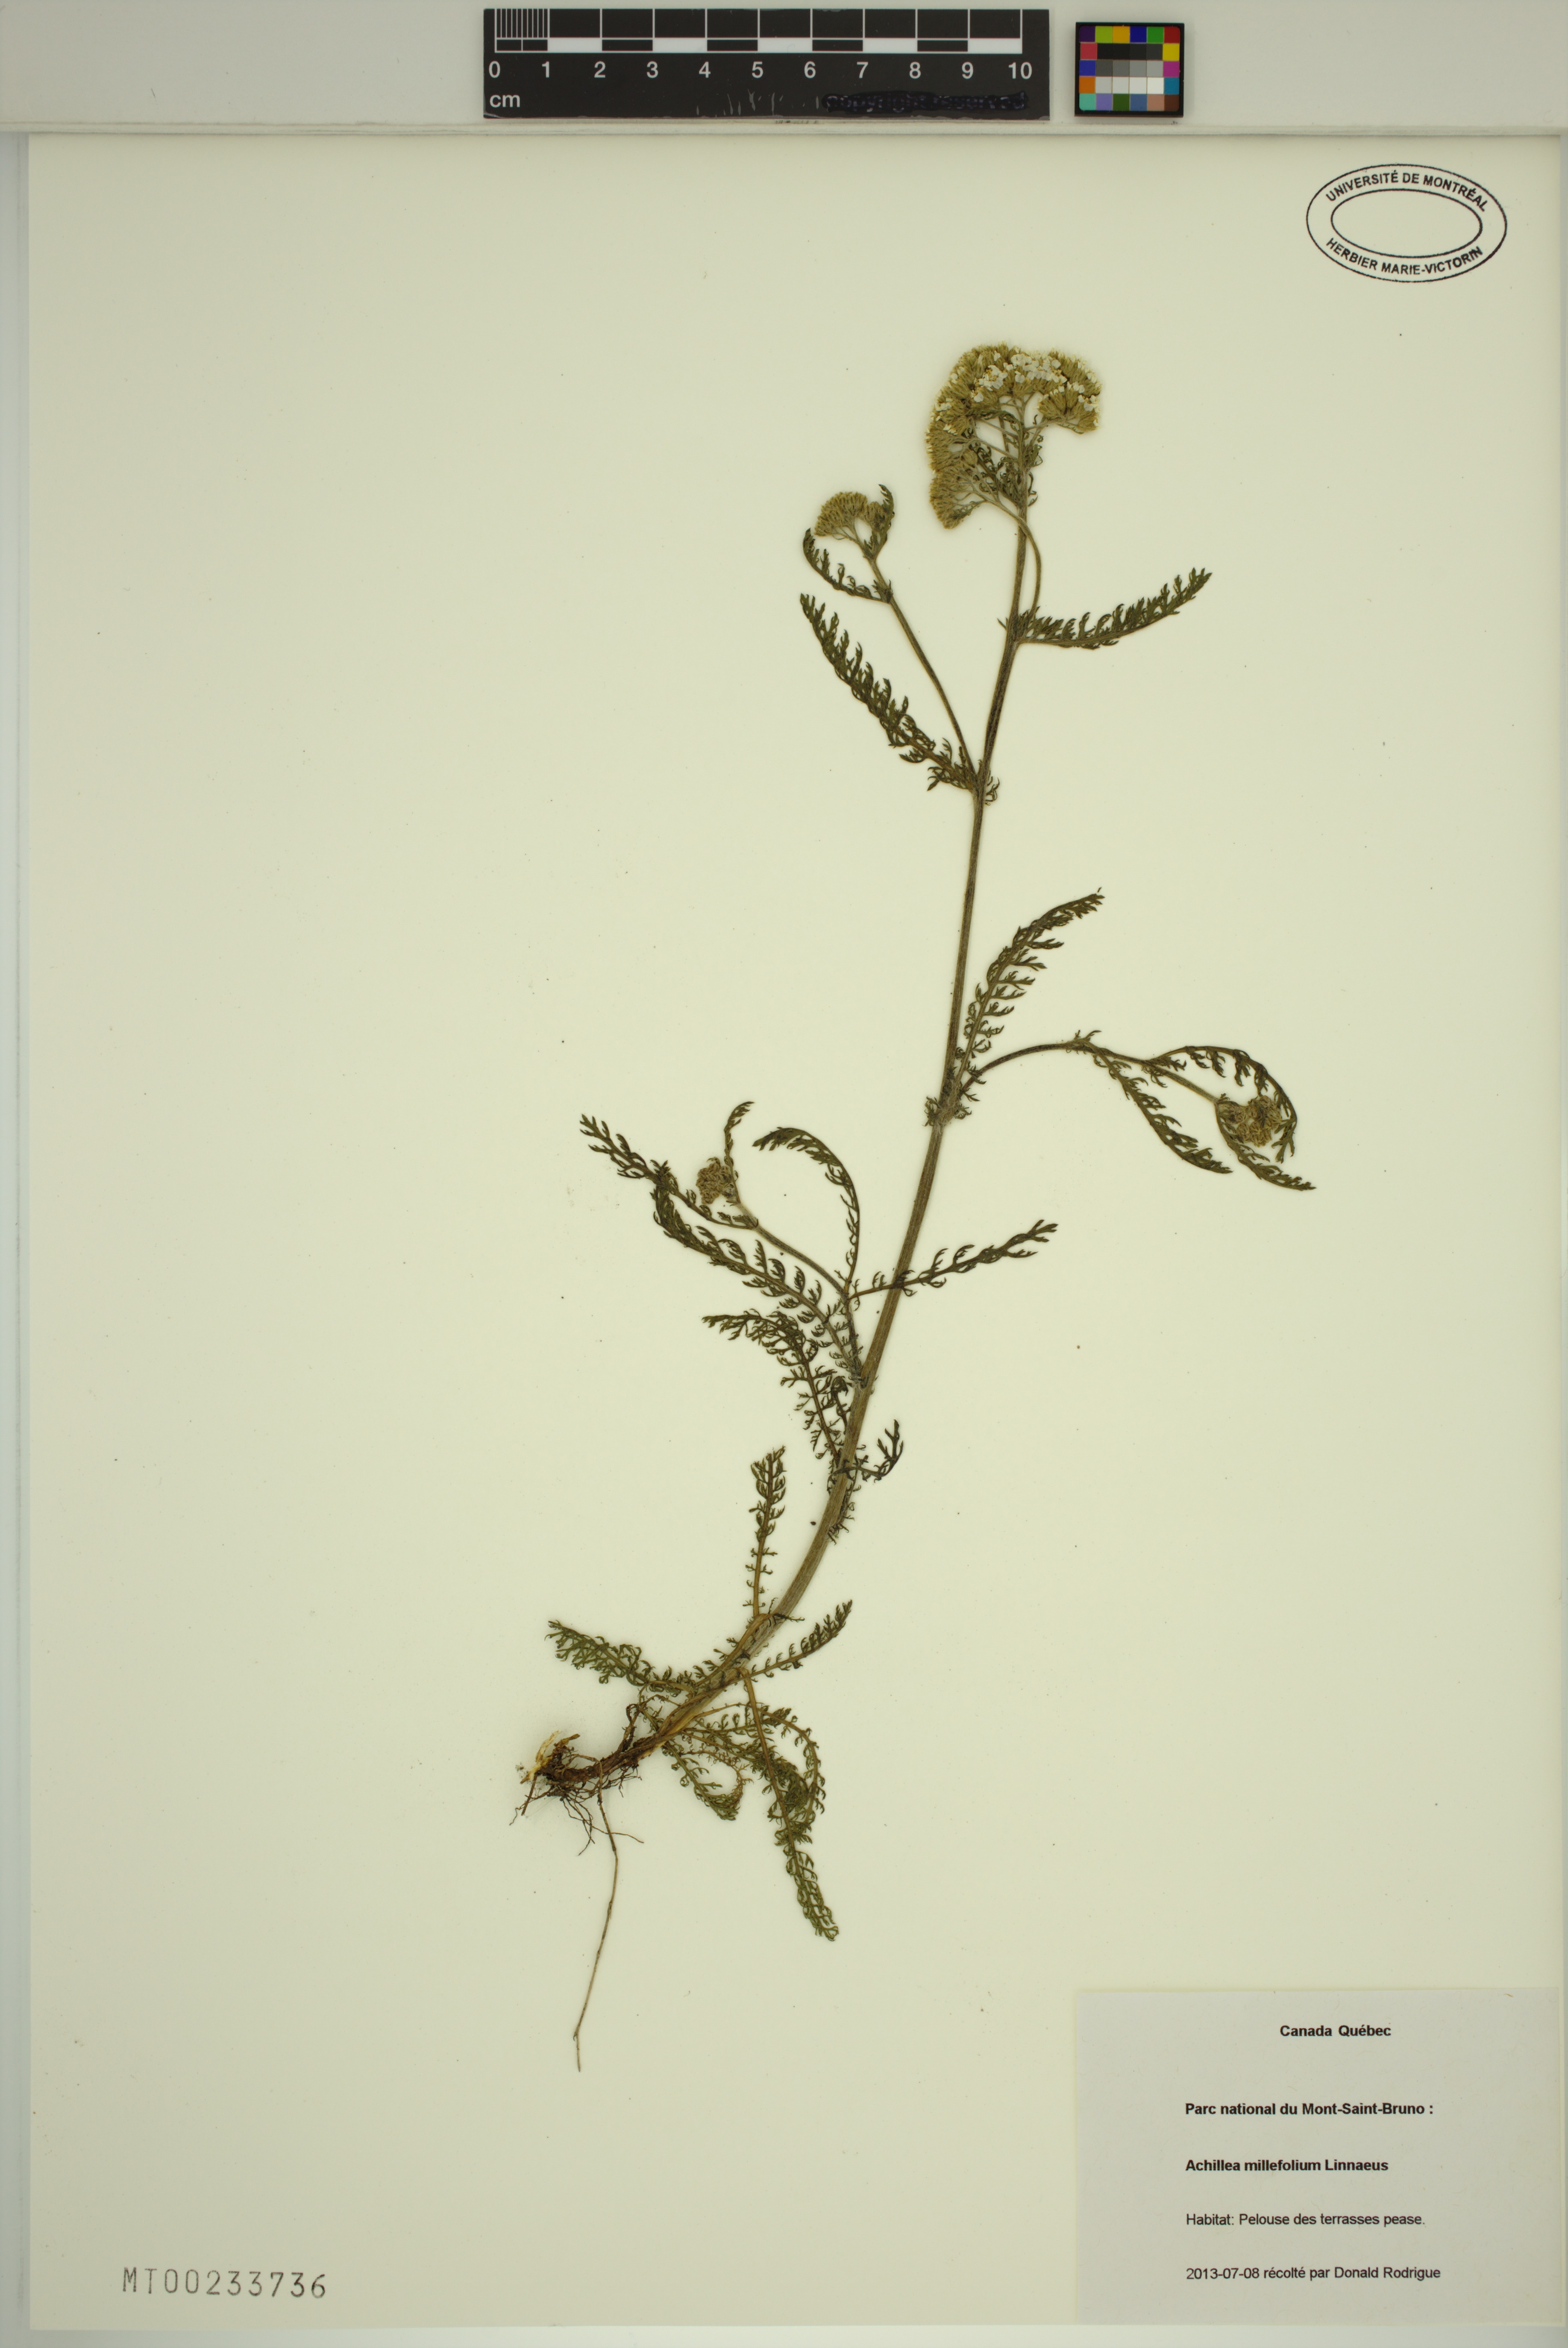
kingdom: Plantae
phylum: Tracheophyta
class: Magnoliopsida
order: Asterales
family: Asteraceae
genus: Achillea
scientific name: Achillea millefolium
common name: Yarrow
